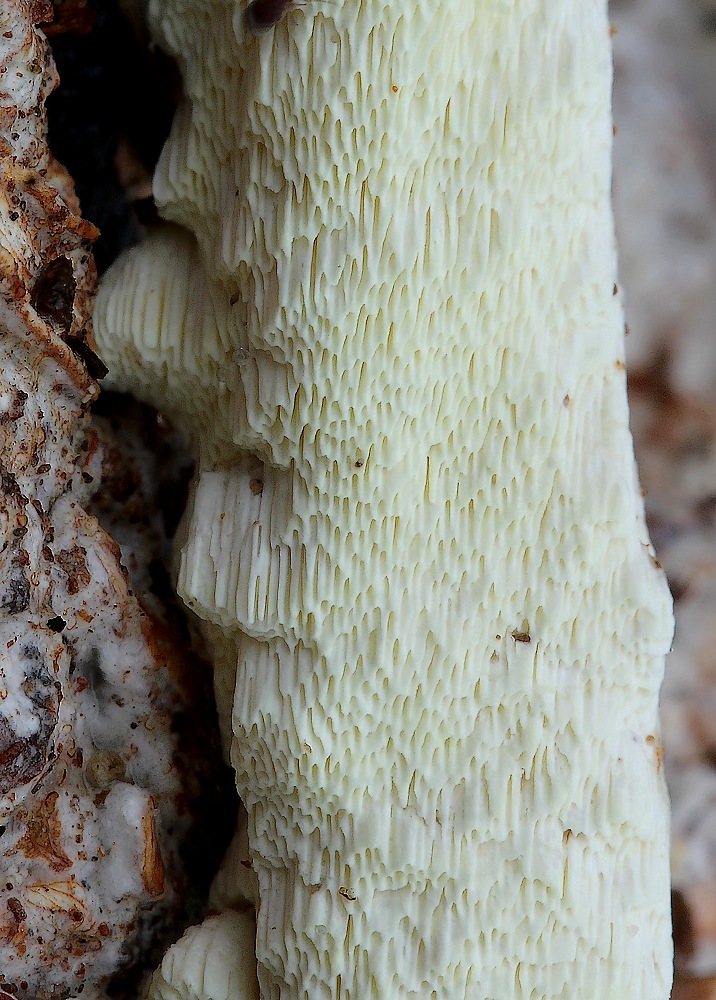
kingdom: Fungi
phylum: Basidiomycota
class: Agaricomycetes
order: Polyporales
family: Fomitopsidaceae
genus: Daedalea
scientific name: Daedalea xantha
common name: gul sejporesvamp
